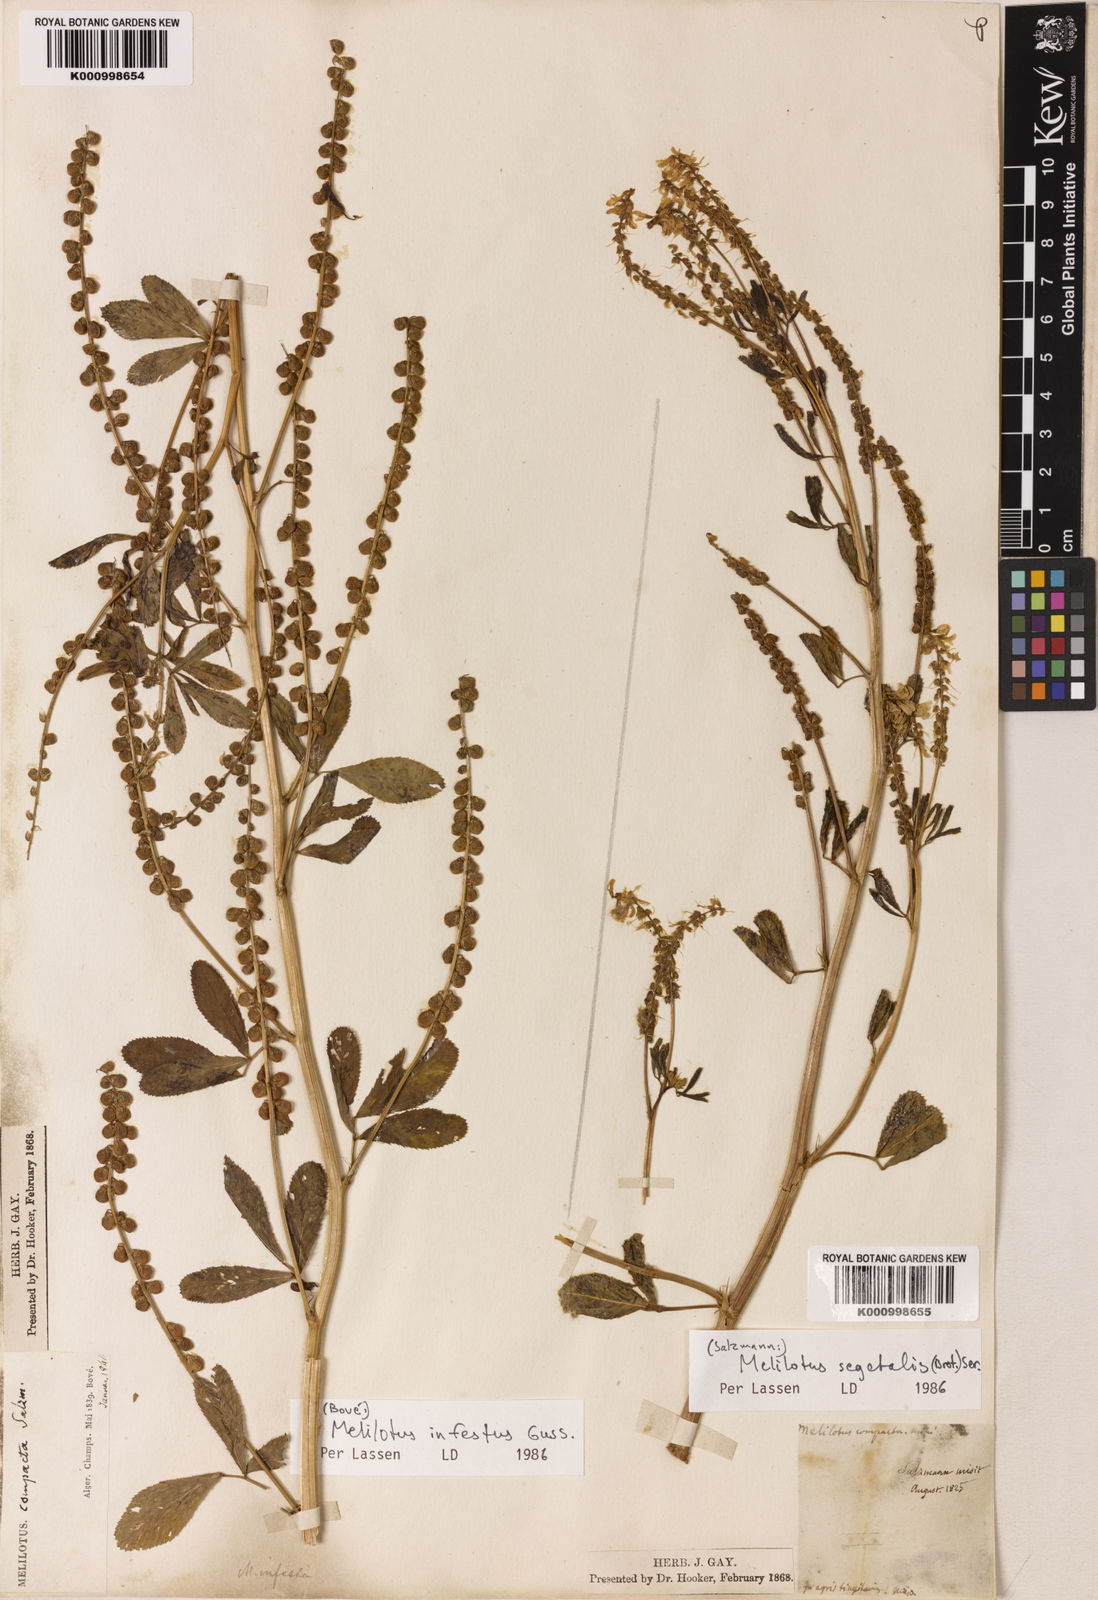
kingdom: Plantae
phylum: Tracheophyta
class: Magnoliopsida
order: Fabales
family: Fabaceae
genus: Melilotus
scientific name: Melilotus segetalis
